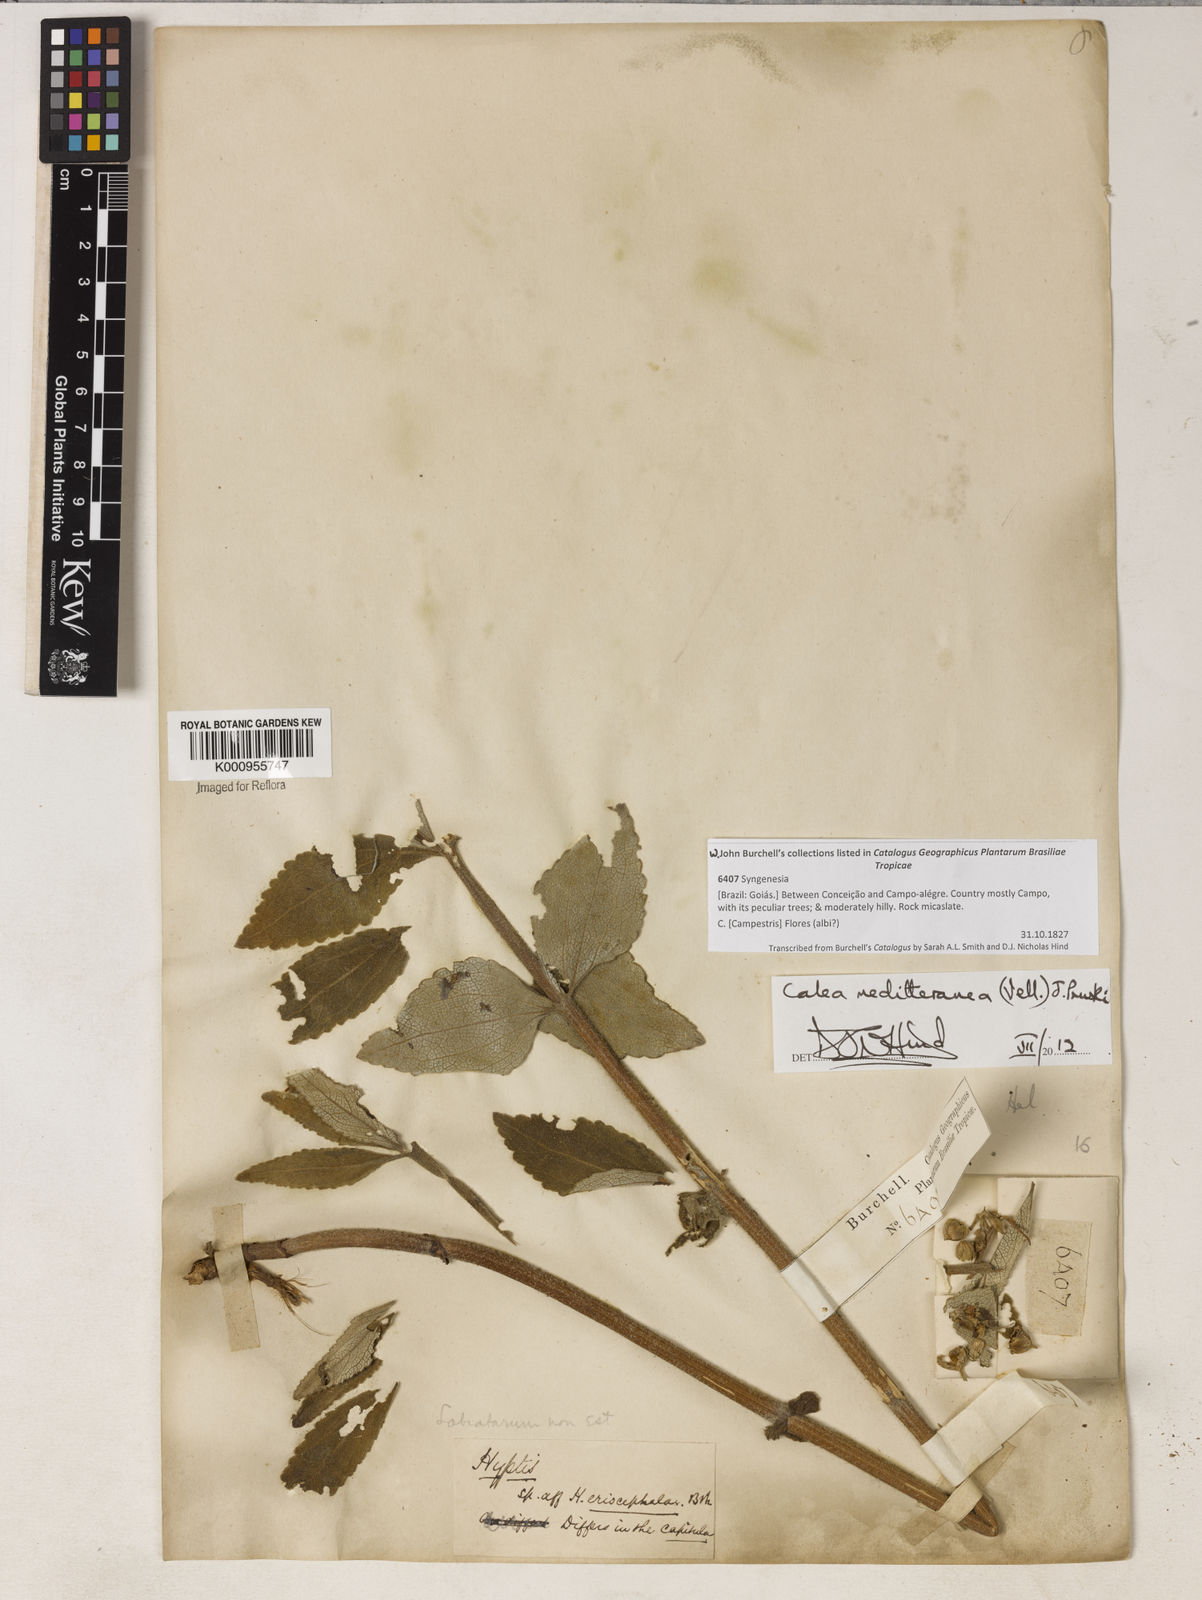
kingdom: Plantae
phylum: Tracheophyta
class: Magnoliopsida
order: Asterales
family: Asteraceae
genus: Calea
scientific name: Calea mediterranea
